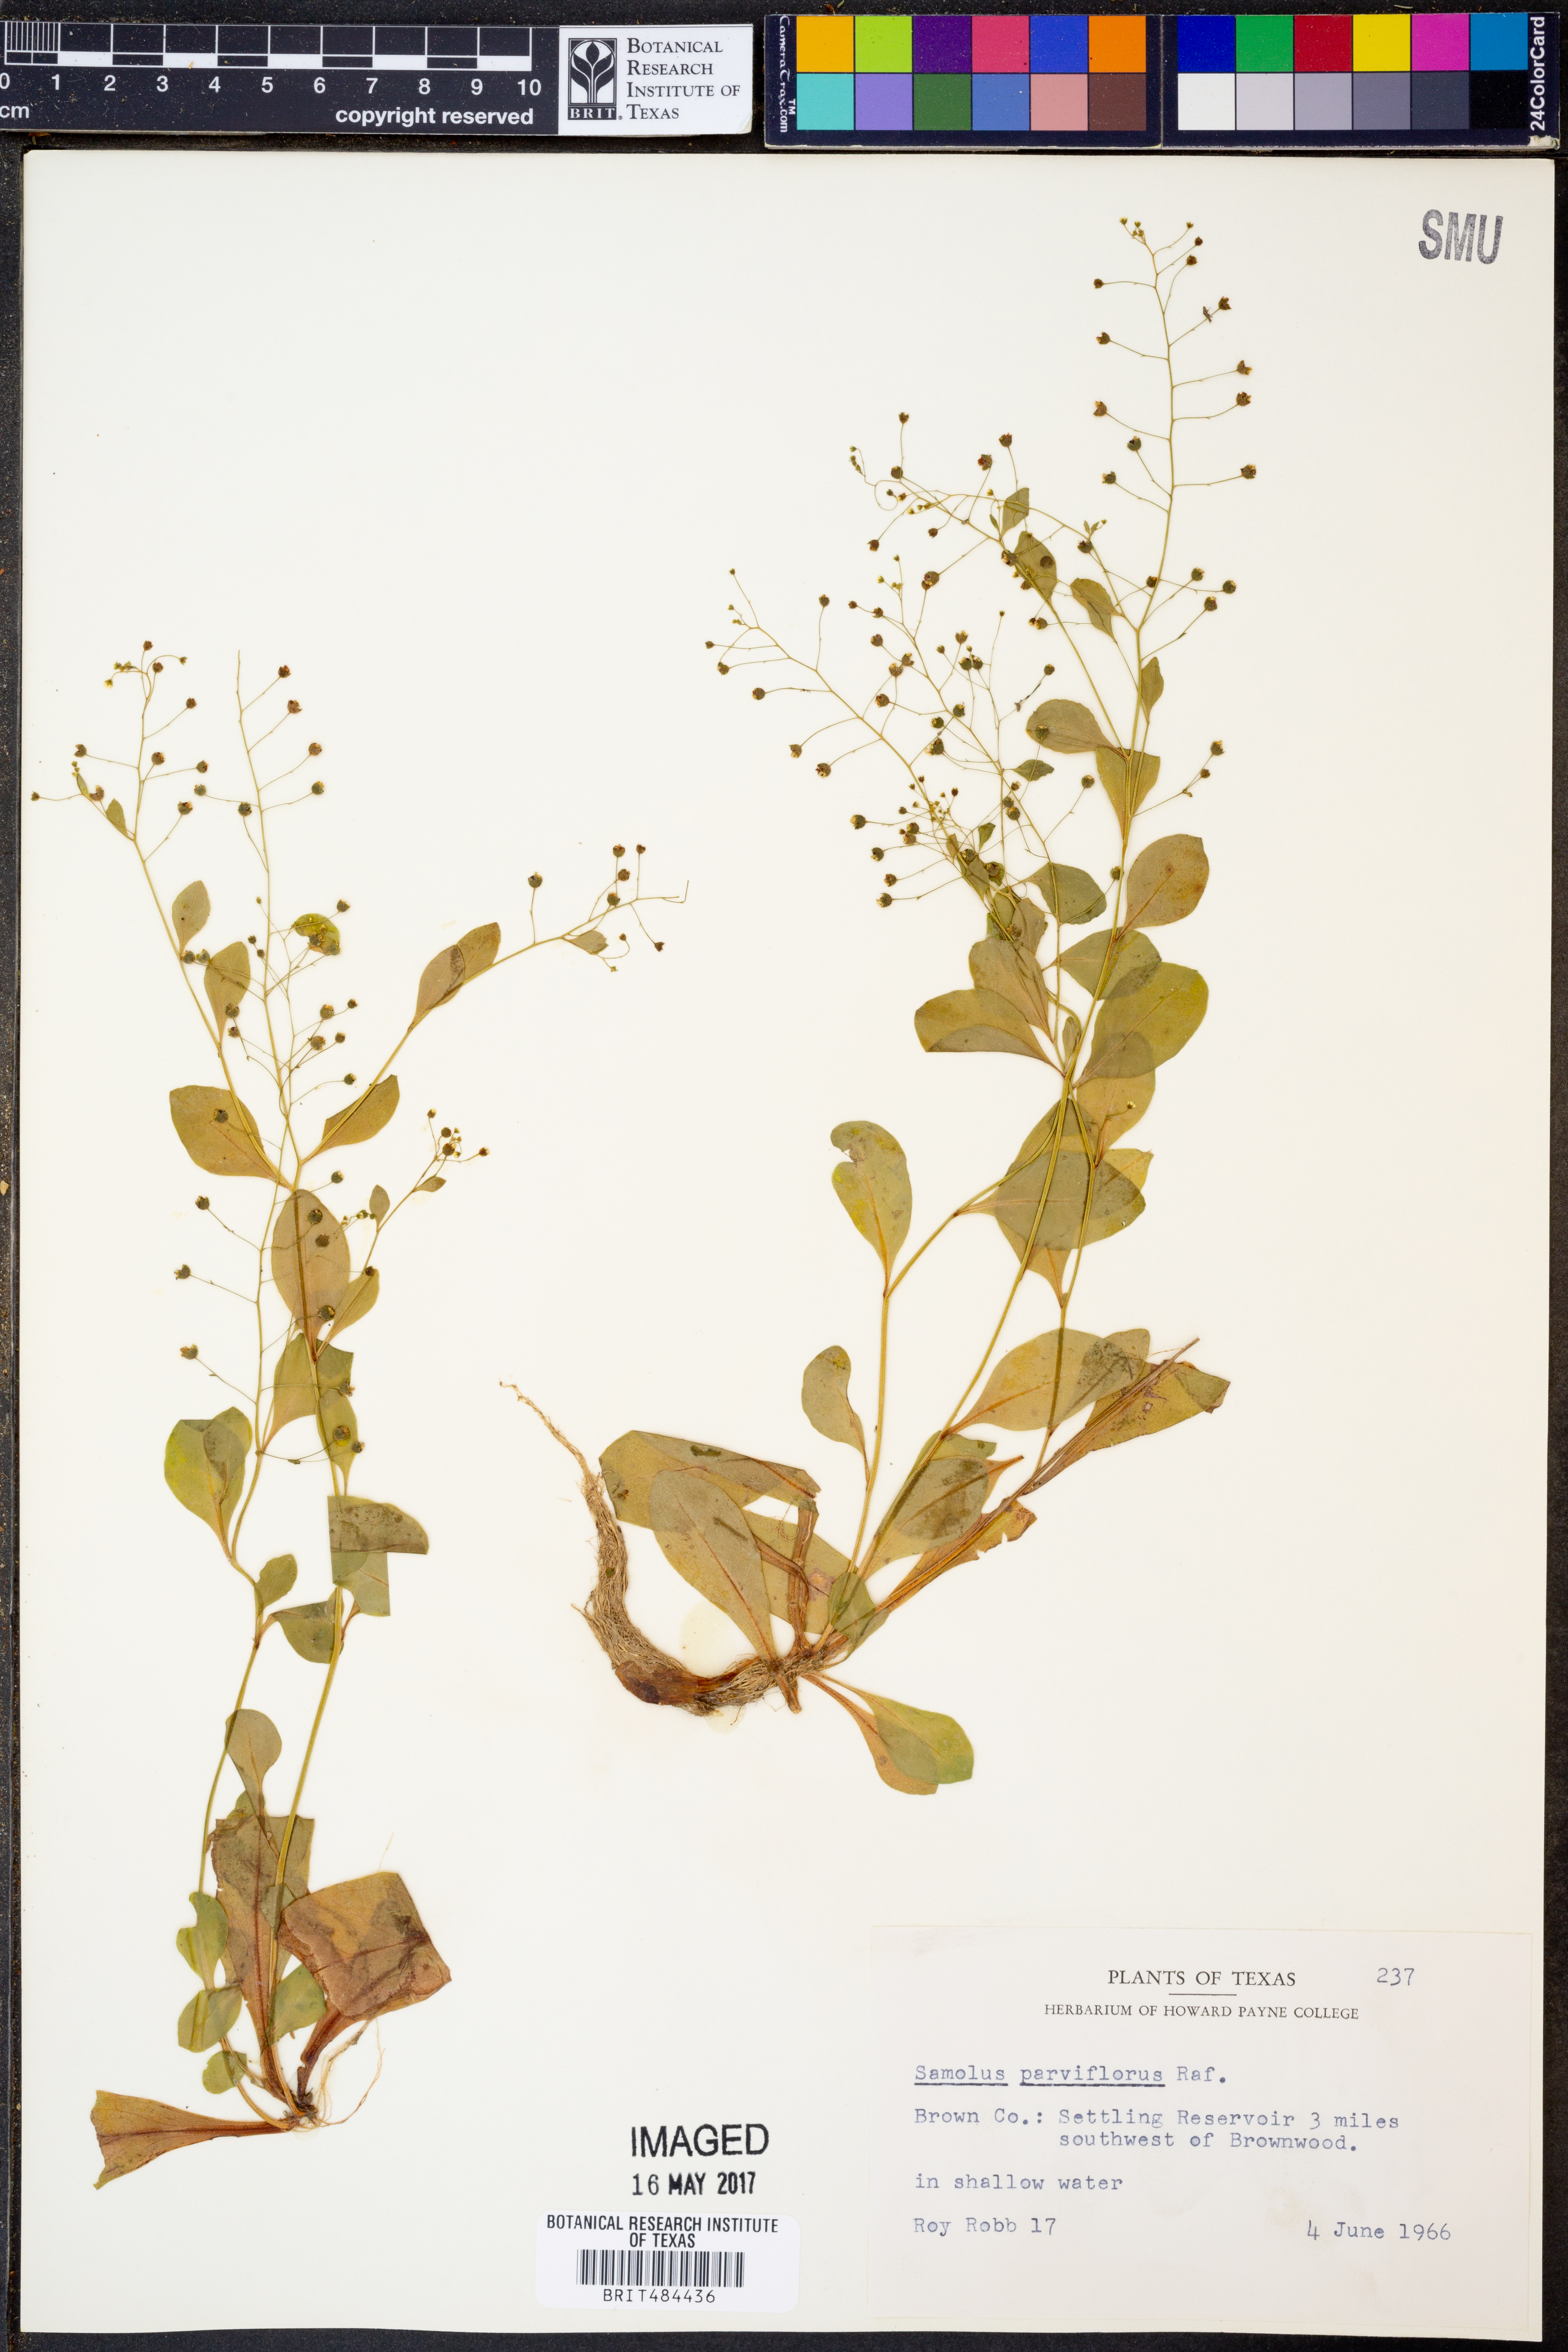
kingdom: Plantae
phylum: Tracheophyta
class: Magnoliopsida
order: Ericales
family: Primulaceae
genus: Samolus
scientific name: Samolus parviflorus
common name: False water pimpernel
